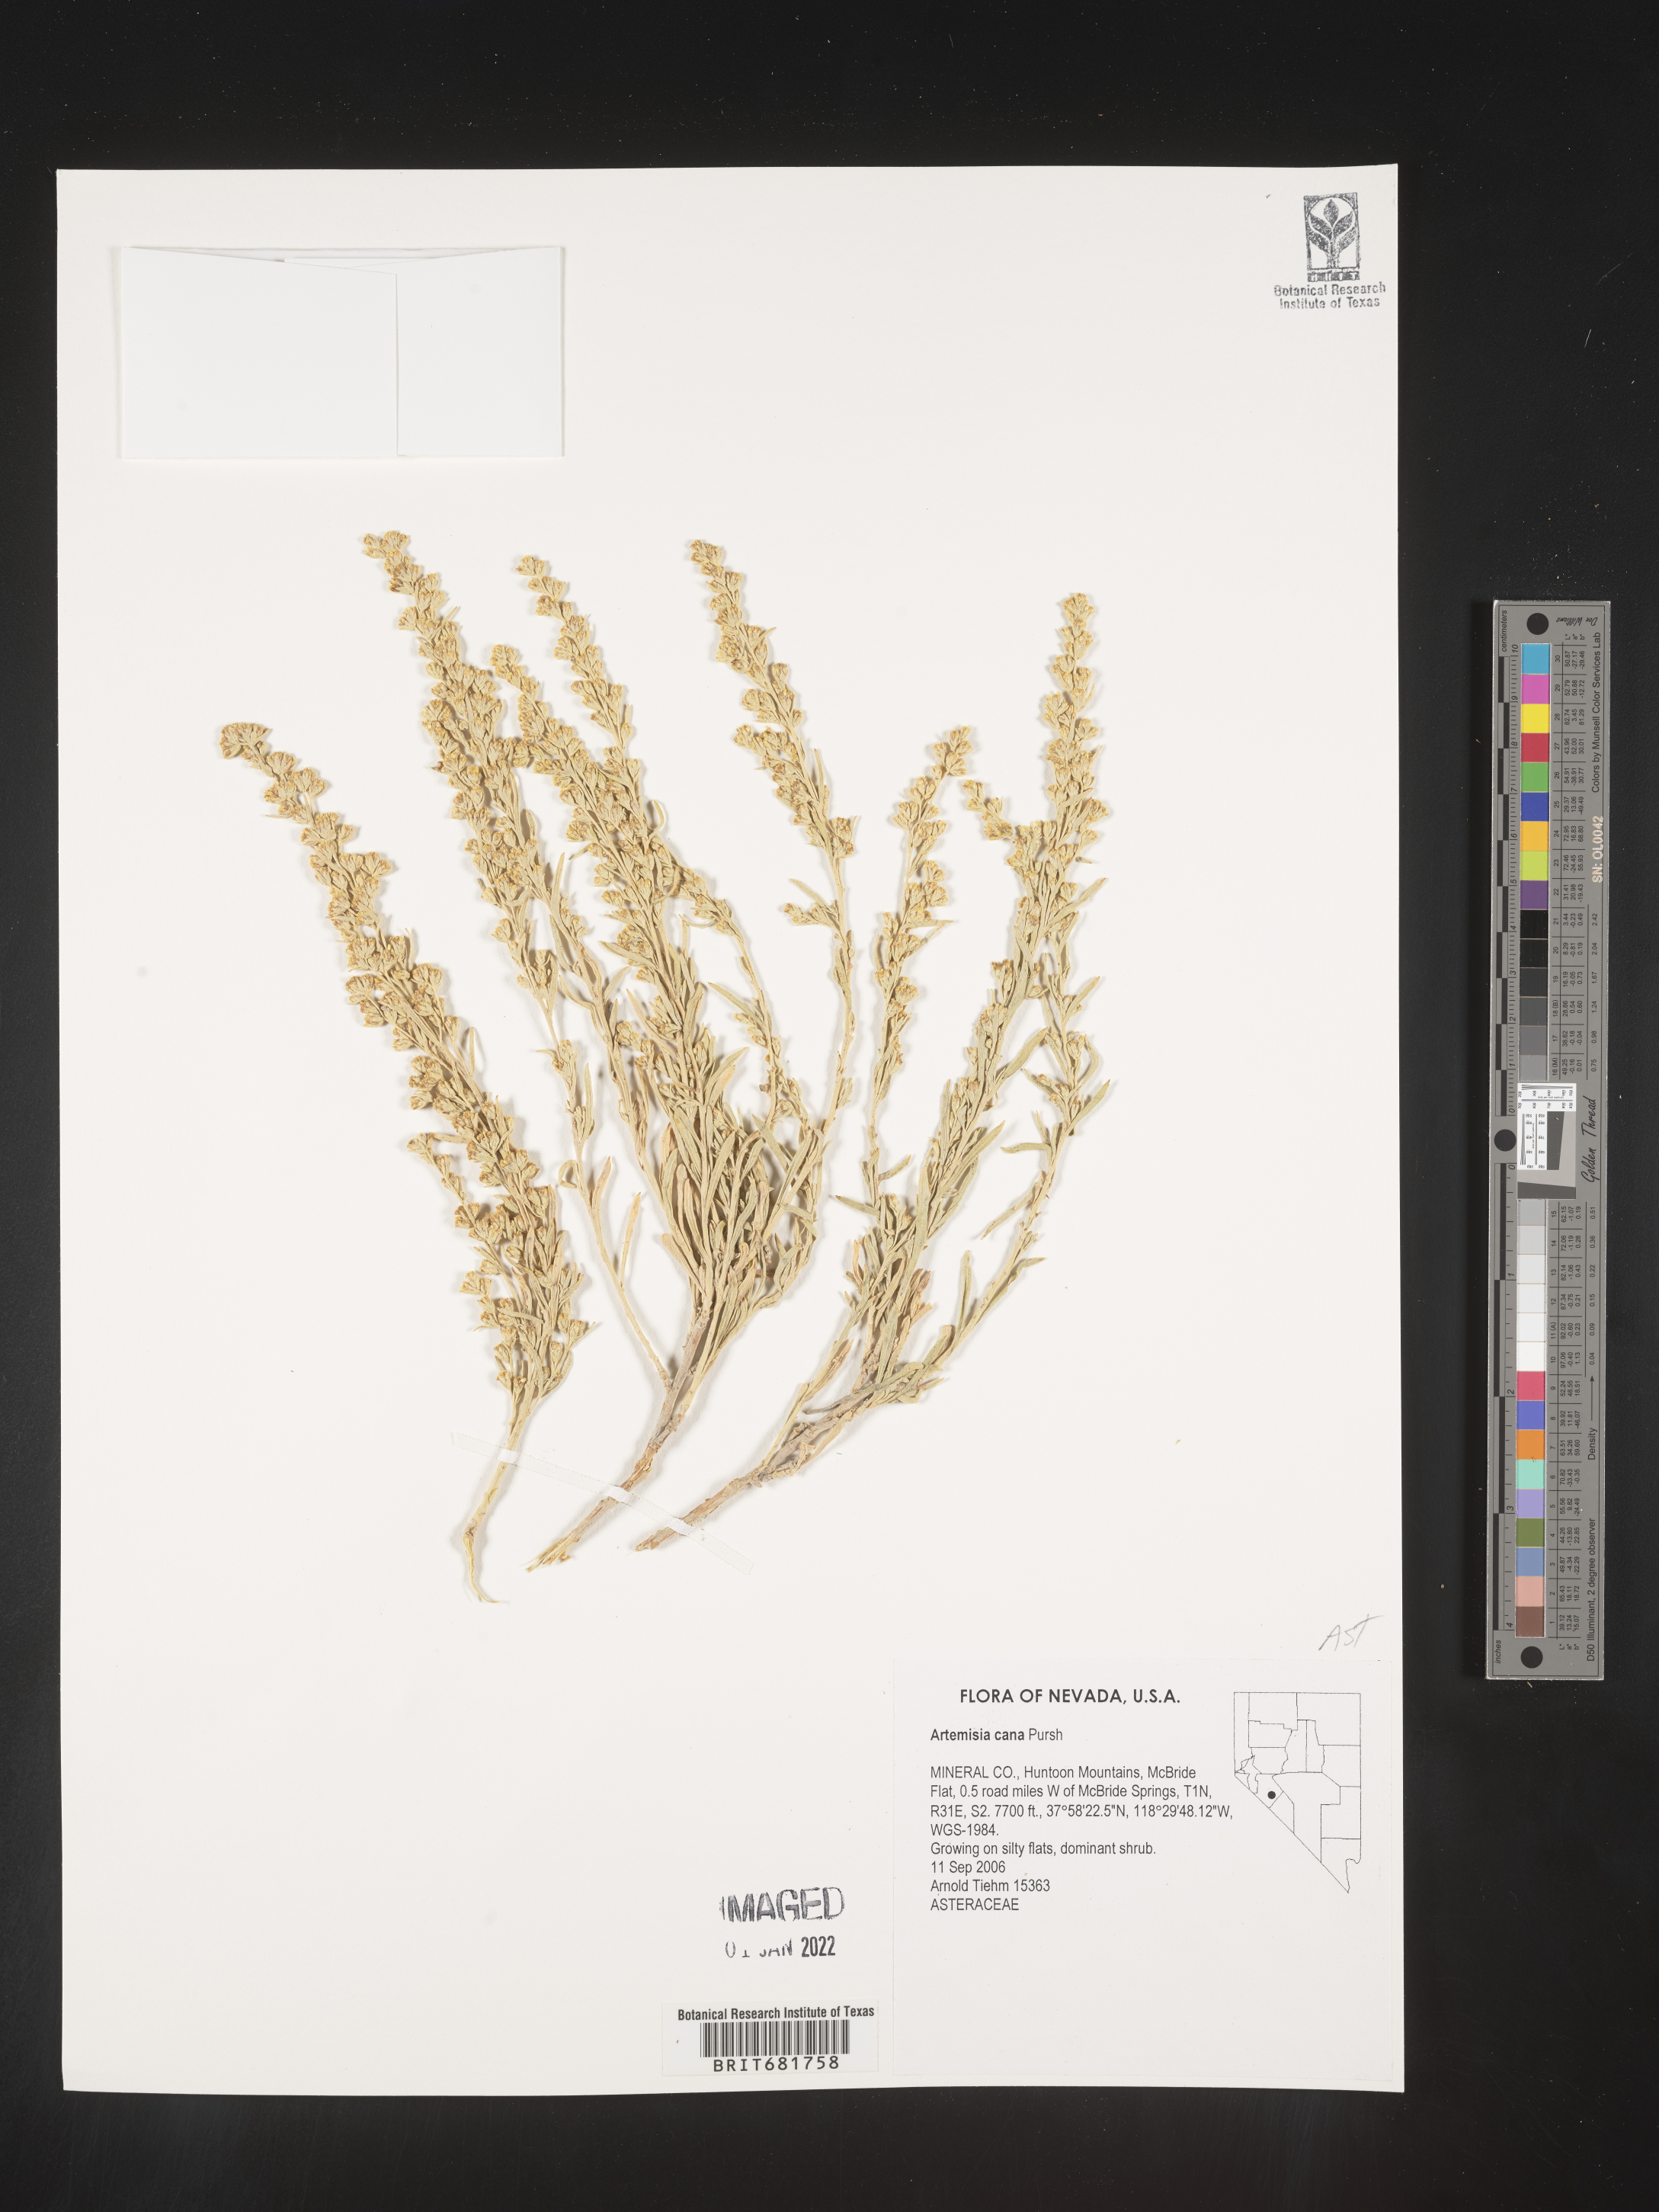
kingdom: Plantae
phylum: Tracheophyta
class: Magnoliopsida
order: Asterales
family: Asteraceae
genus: Artemisia
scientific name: Artemisia cana
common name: Silver sagebrush
